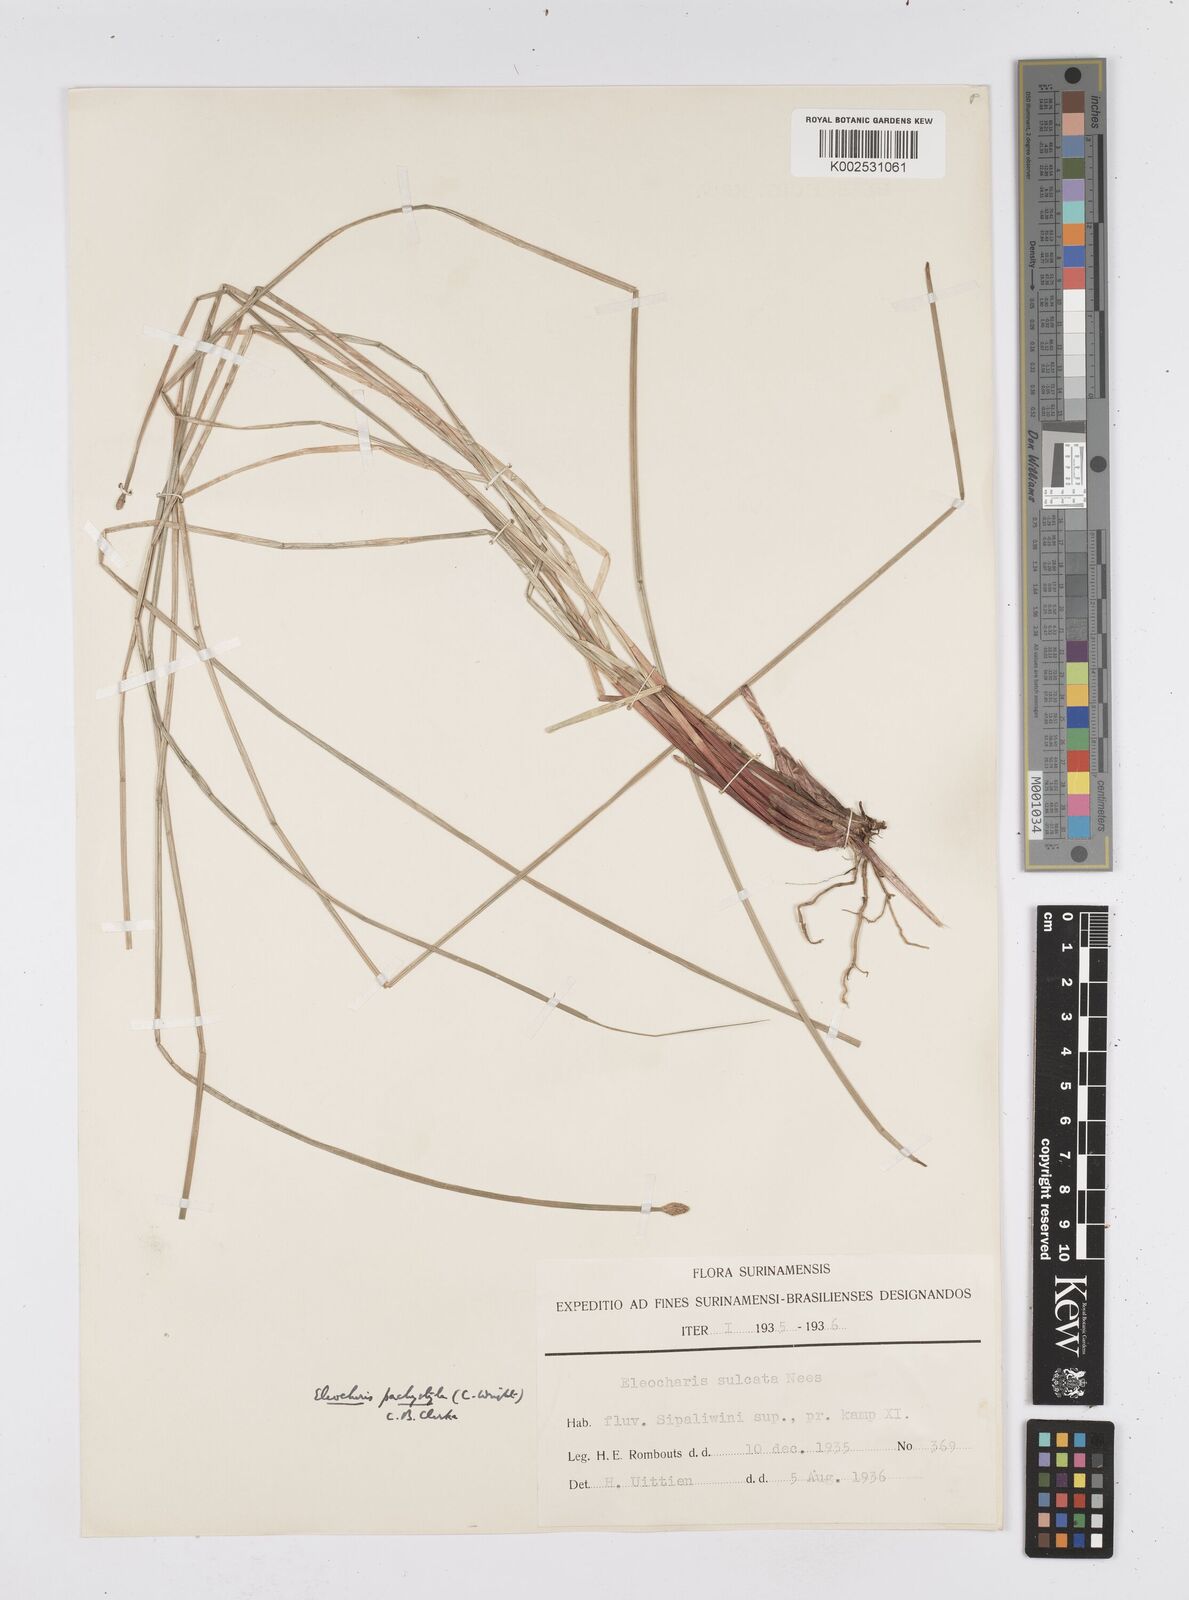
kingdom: Plantae
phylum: Tracheophyta
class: Liliopsida
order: Poales
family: Cyperaceae
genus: Eleocharis
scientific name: Eleocharis pachystyla
